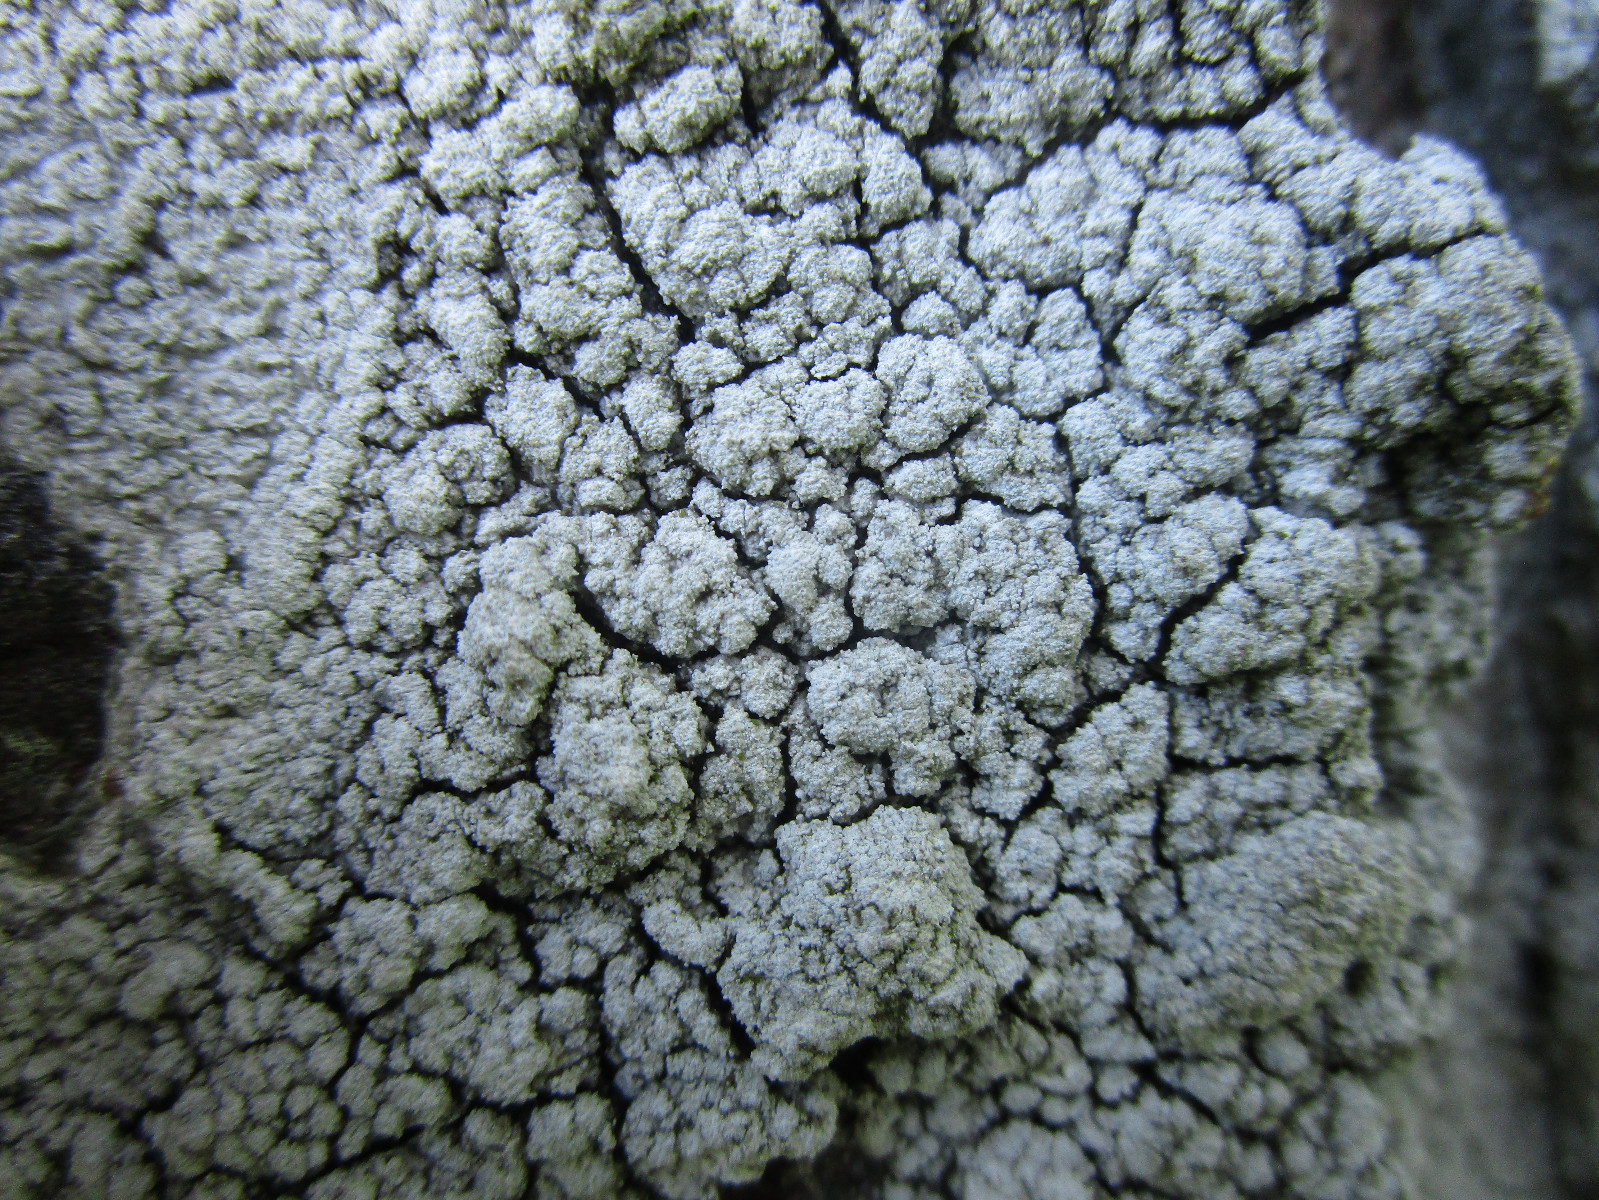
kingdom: Fungi
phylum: Ascomycota
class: Lecanoromycetes
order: Pertusariales
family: Pertusariaceae
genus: Lepra
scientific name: Lepra amara
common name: bitter prikvortelav
